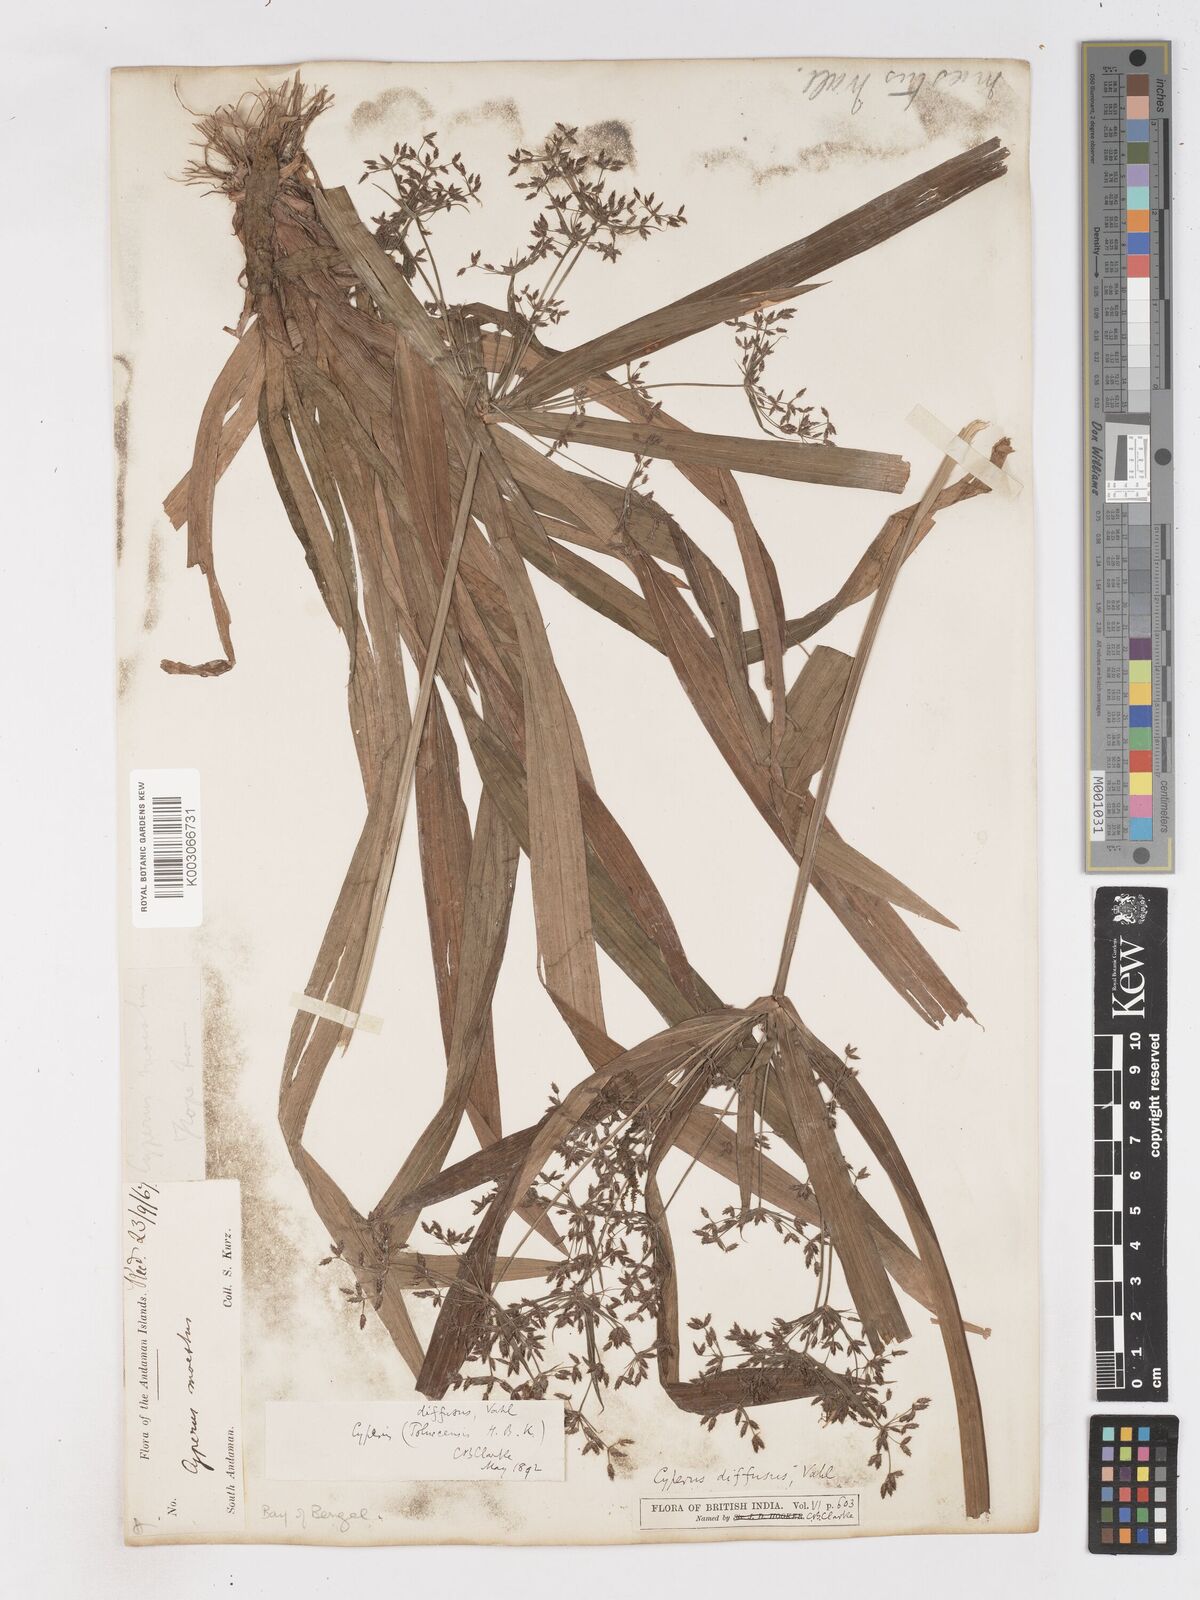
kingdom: Plantae
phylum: Tracheophyta
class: Liliopsida
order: Poales
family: Cyperaceae
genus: Cyperus
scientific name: Cyperus diffusus
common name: Dwarf umbrella grass
